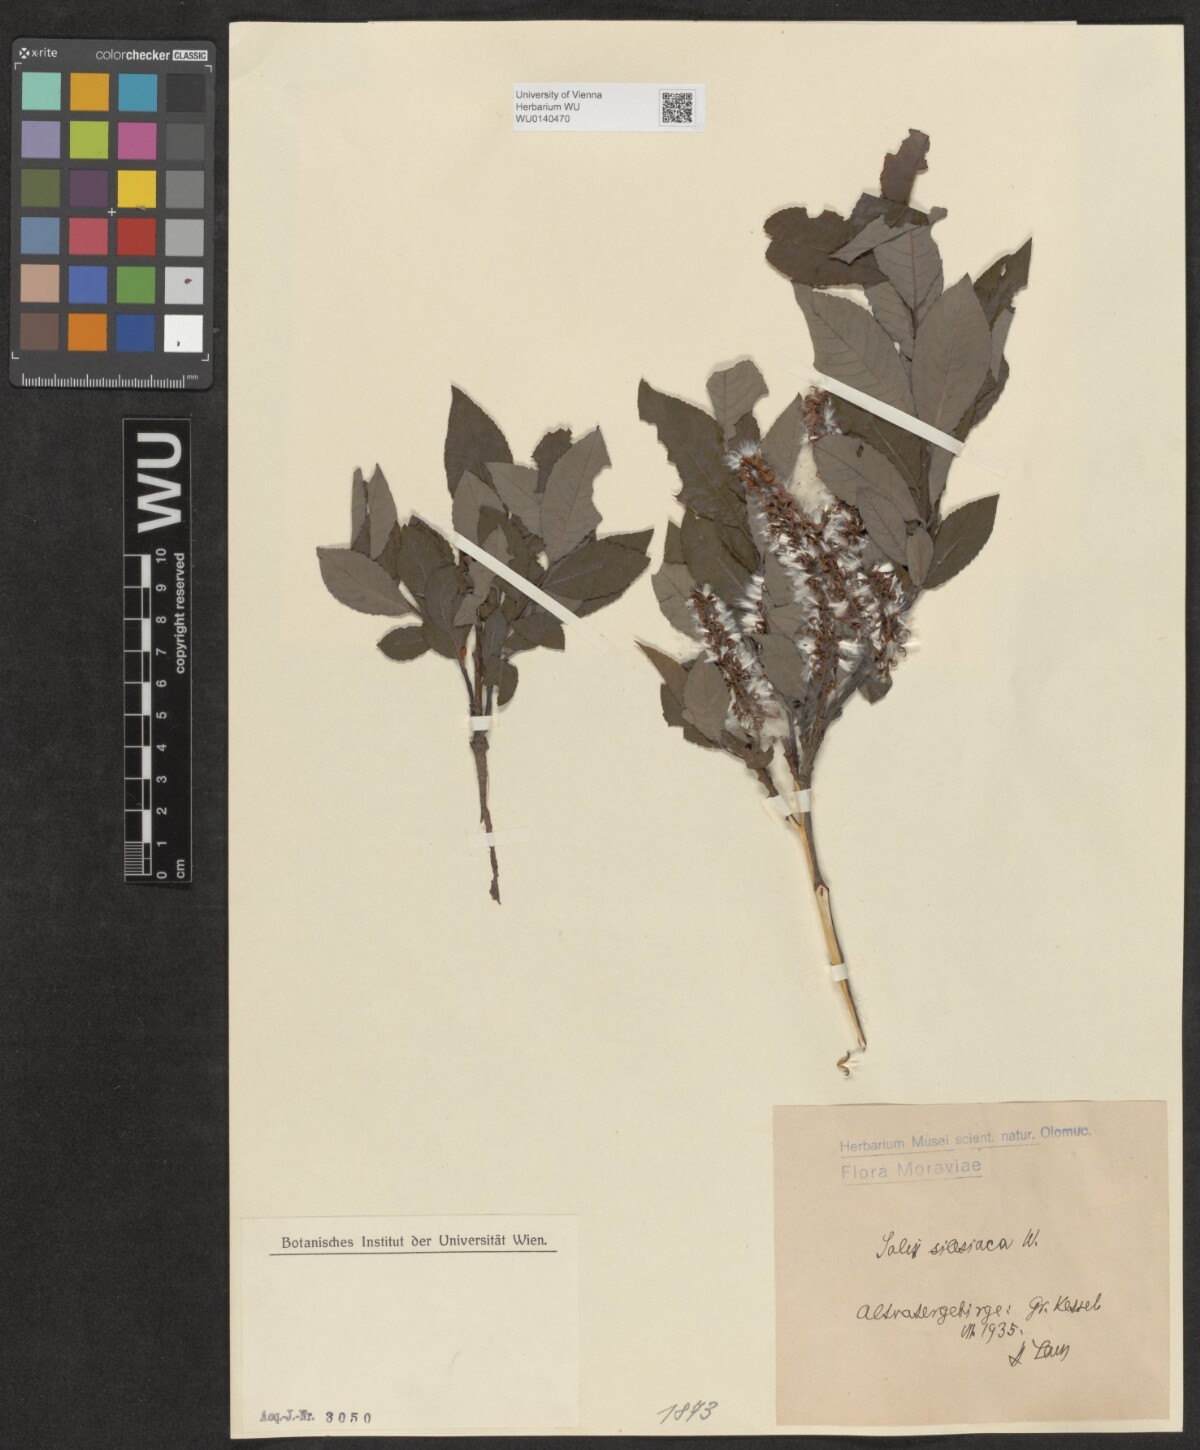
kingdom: Plantae
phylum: Tracheophyta
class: Magnoliopsida
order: Malpighiales
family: Salicaceae
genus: Salix
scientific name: Salix silesiaca
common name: Silesian willow
